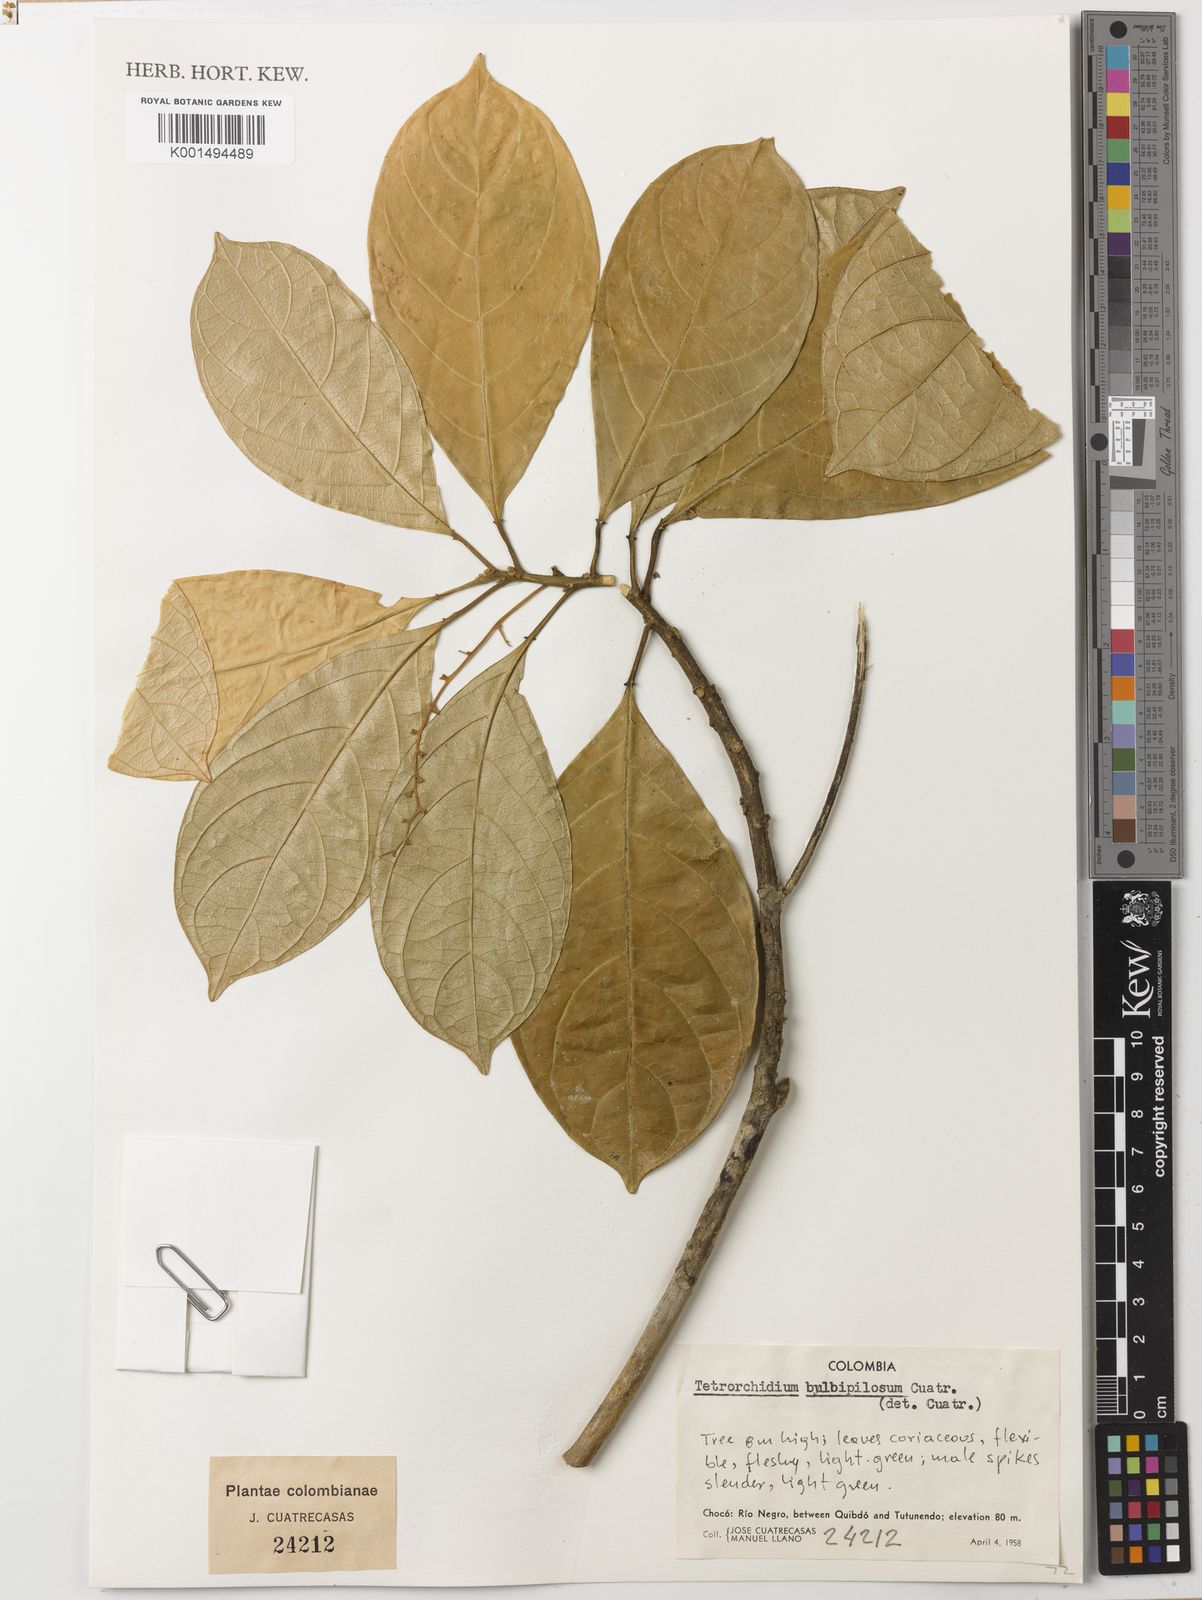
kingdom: Plantae
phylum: Tracheophyta
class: Magnoliopsida
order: Malpighiales
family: Euphorbiaceae
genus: Tetrorchidium
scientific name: Tetrorchidium bulbipilosum
